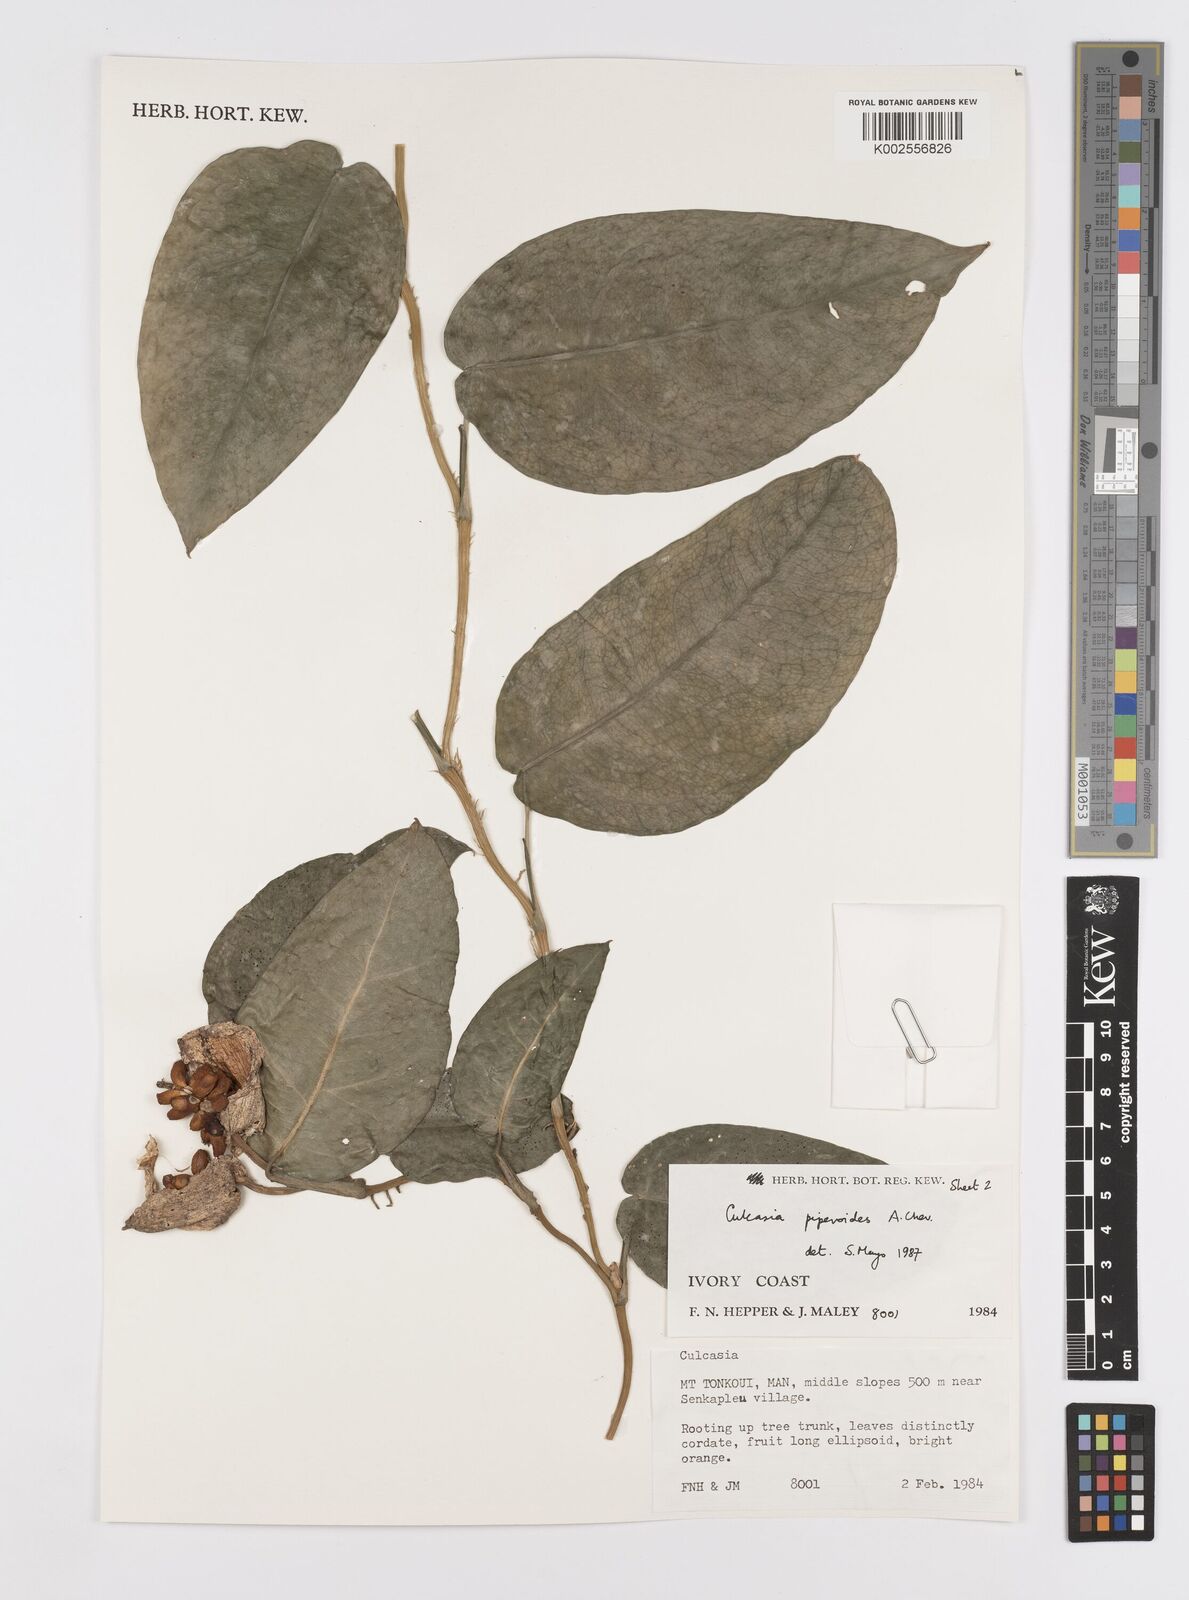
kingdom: Plantae
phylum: Tracheophyta
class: Liliopsida
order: Alismatales
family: Araceae
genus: Culcasia
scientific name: Culcasia parviflora
